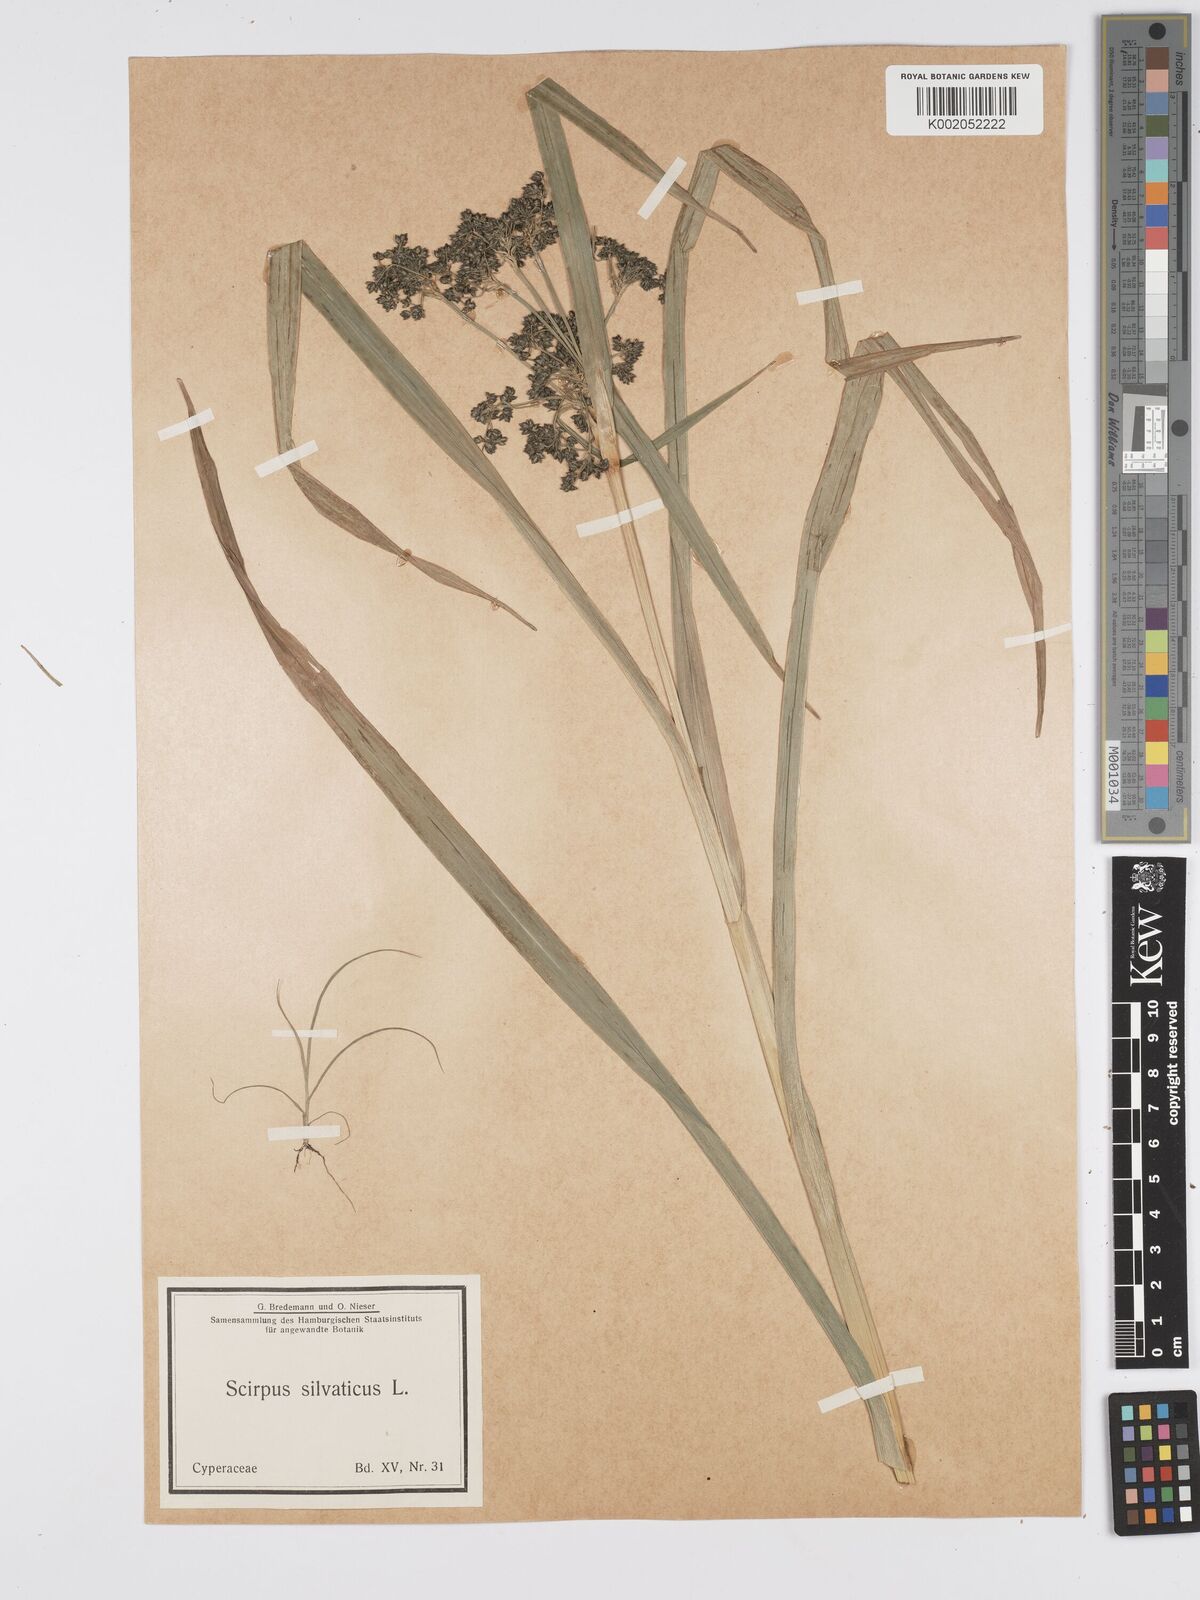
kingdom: Plantae
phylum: Tracheophyta
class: Liliopsida
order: Poales
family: Cyperaceae
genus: Scirpus
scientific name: Scirpus sylvaticus
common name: Wood club-rush
